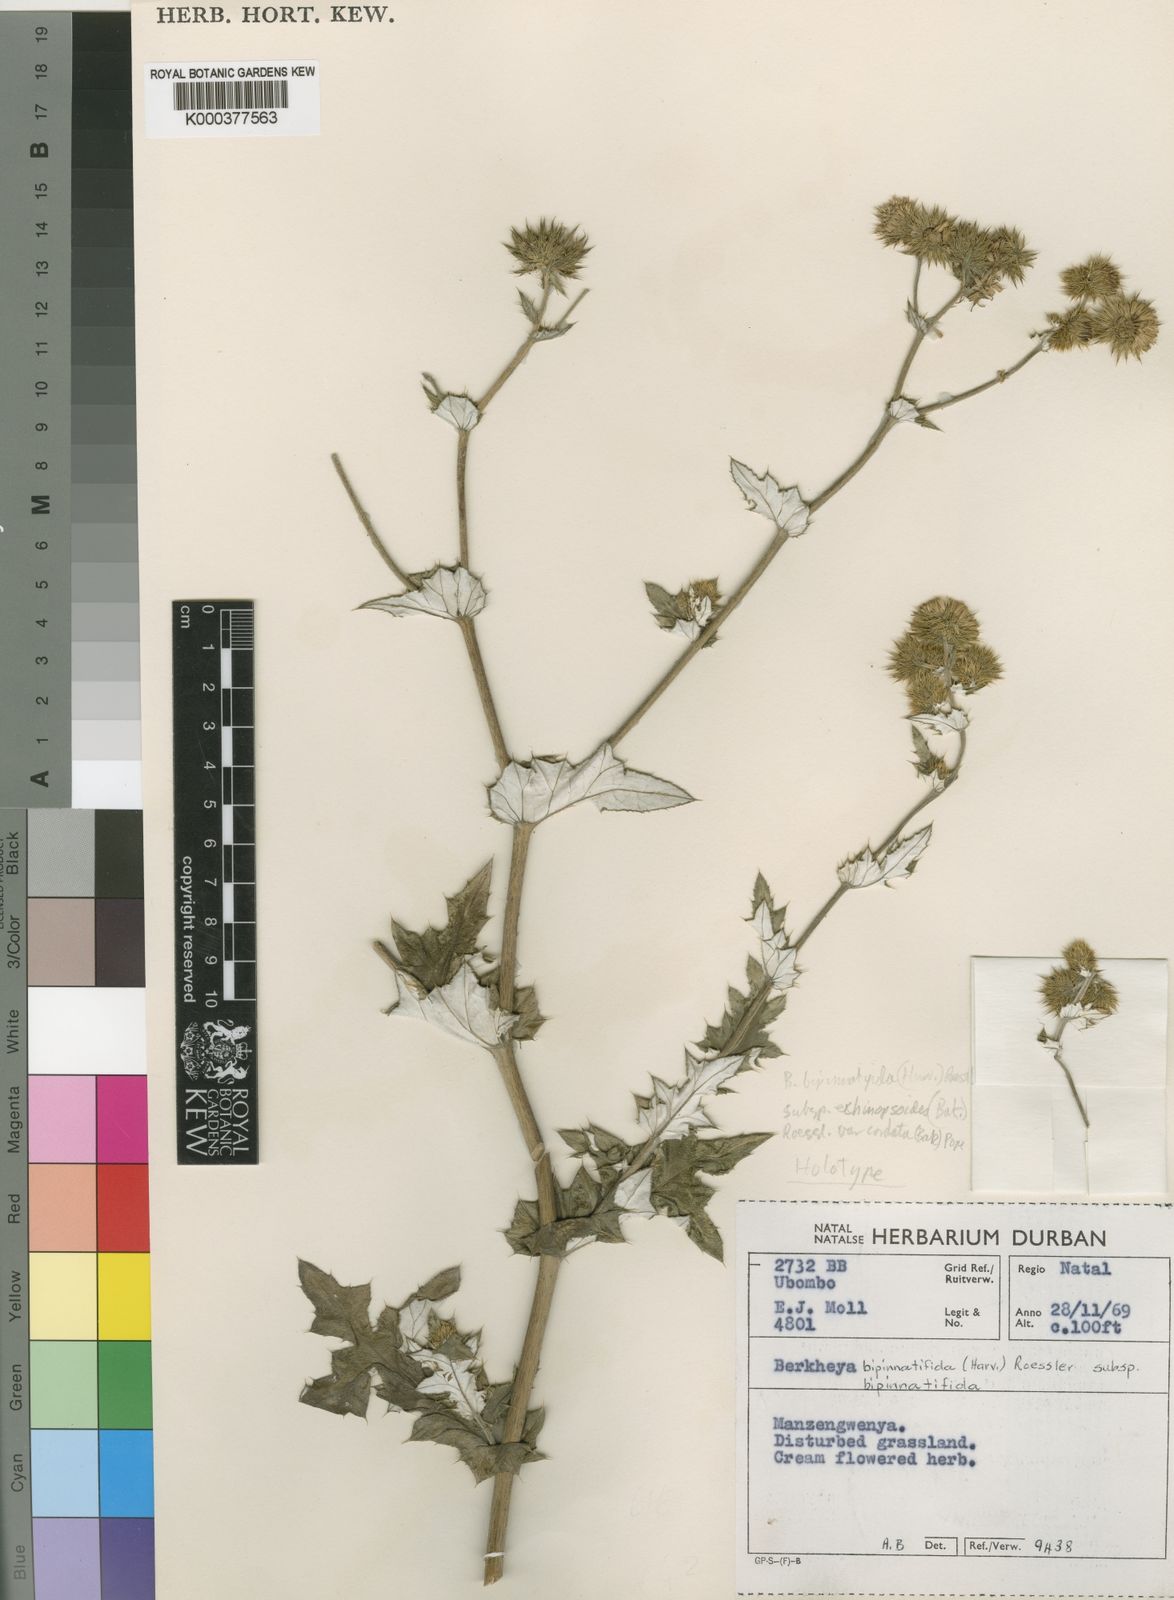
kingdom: Plantae
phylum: Tracheophyta
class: Magnoliopsida
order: Asterales
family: Asteraceae
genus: Berkheya
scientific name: Berkheya bipinnatifida
